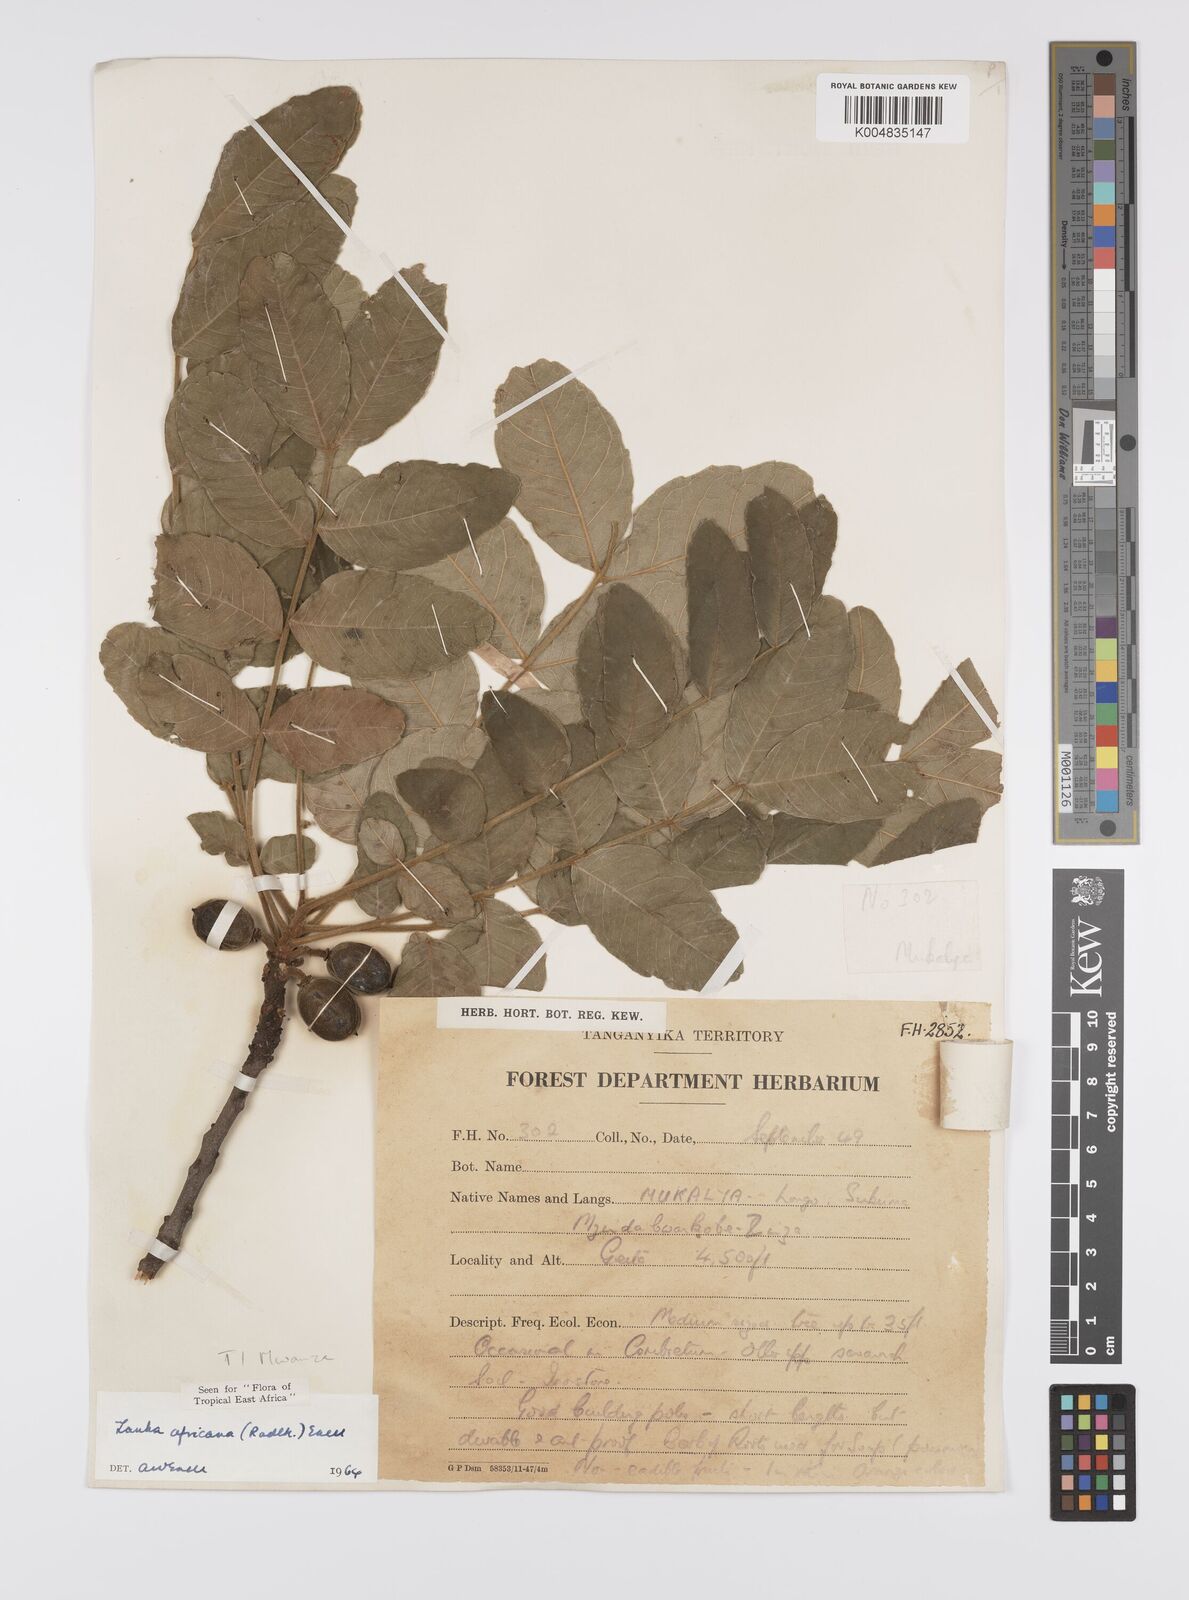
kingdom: Plantae
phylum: Tracheophyta
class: Magnoliopsida
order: Sapindales
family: Sapindaceae
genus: Zanha
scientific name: Zanha africana
